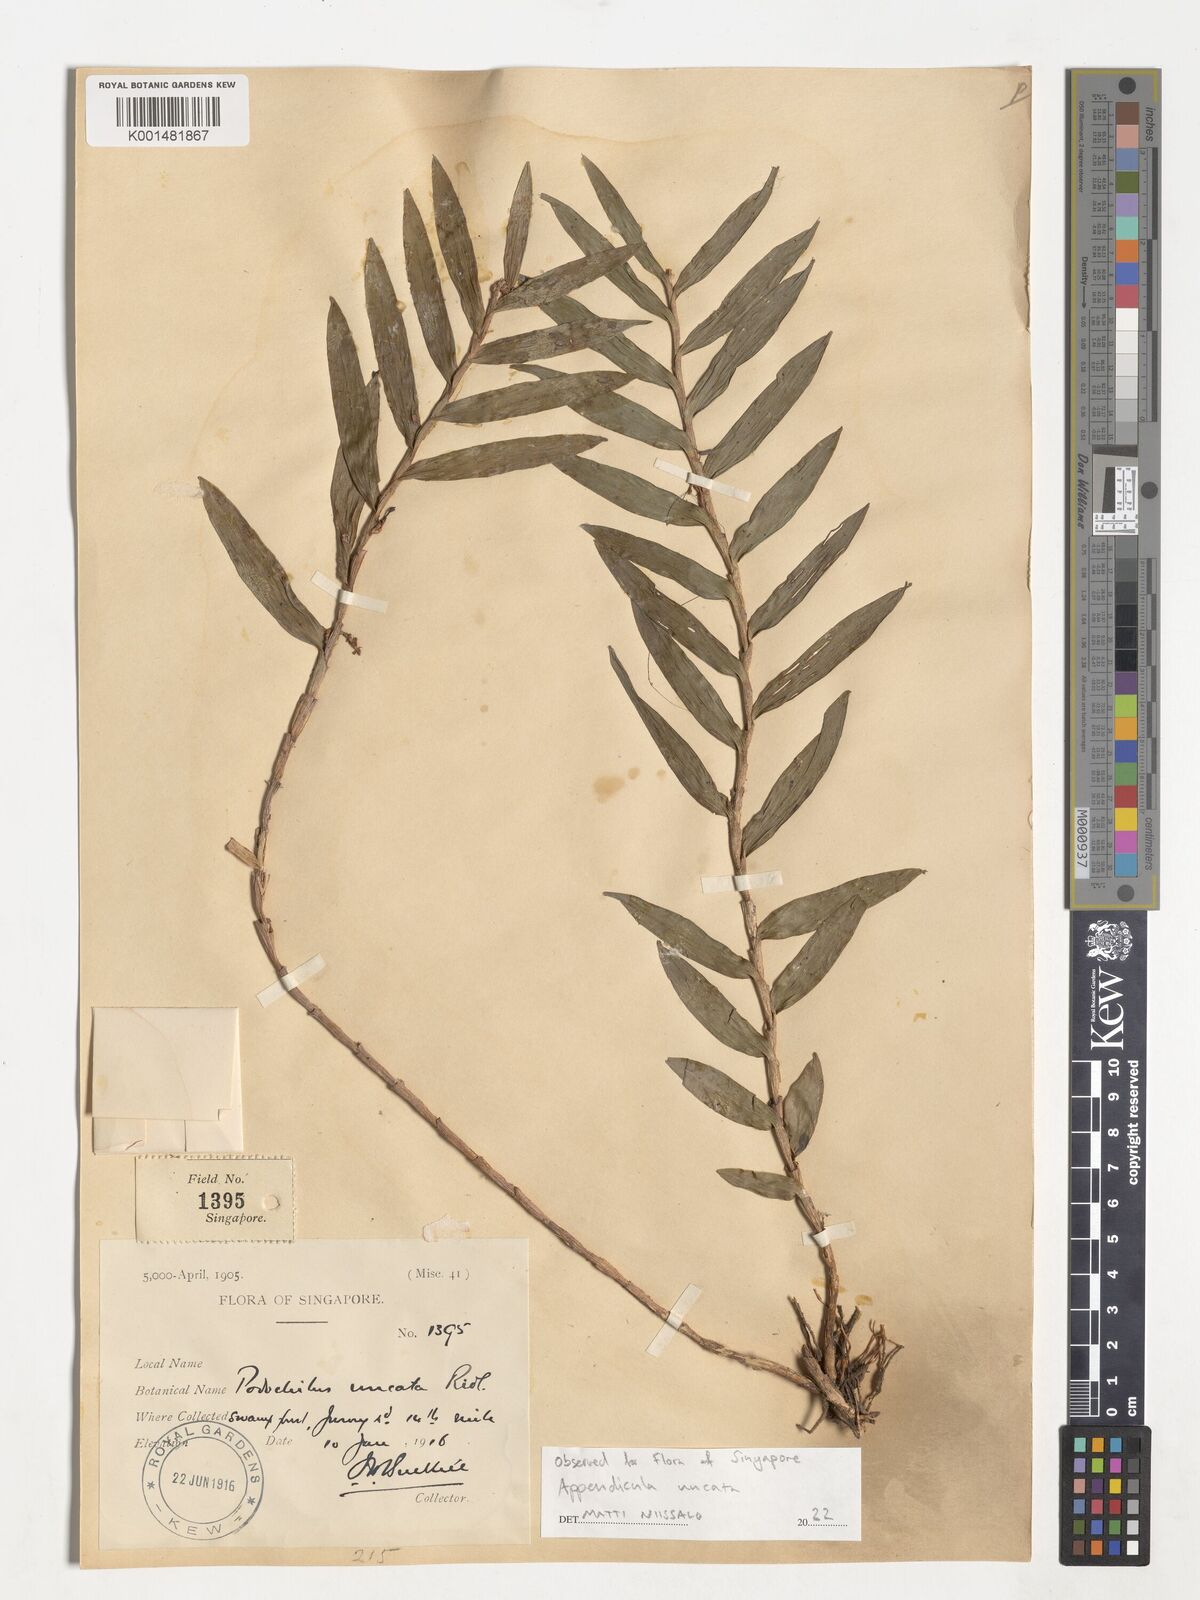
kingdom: Plantae
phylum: Tracheophyta
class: Liliopsida
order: Asparagales
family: Orchidaceae
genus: Appendicula
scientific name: Appendicula uncata
